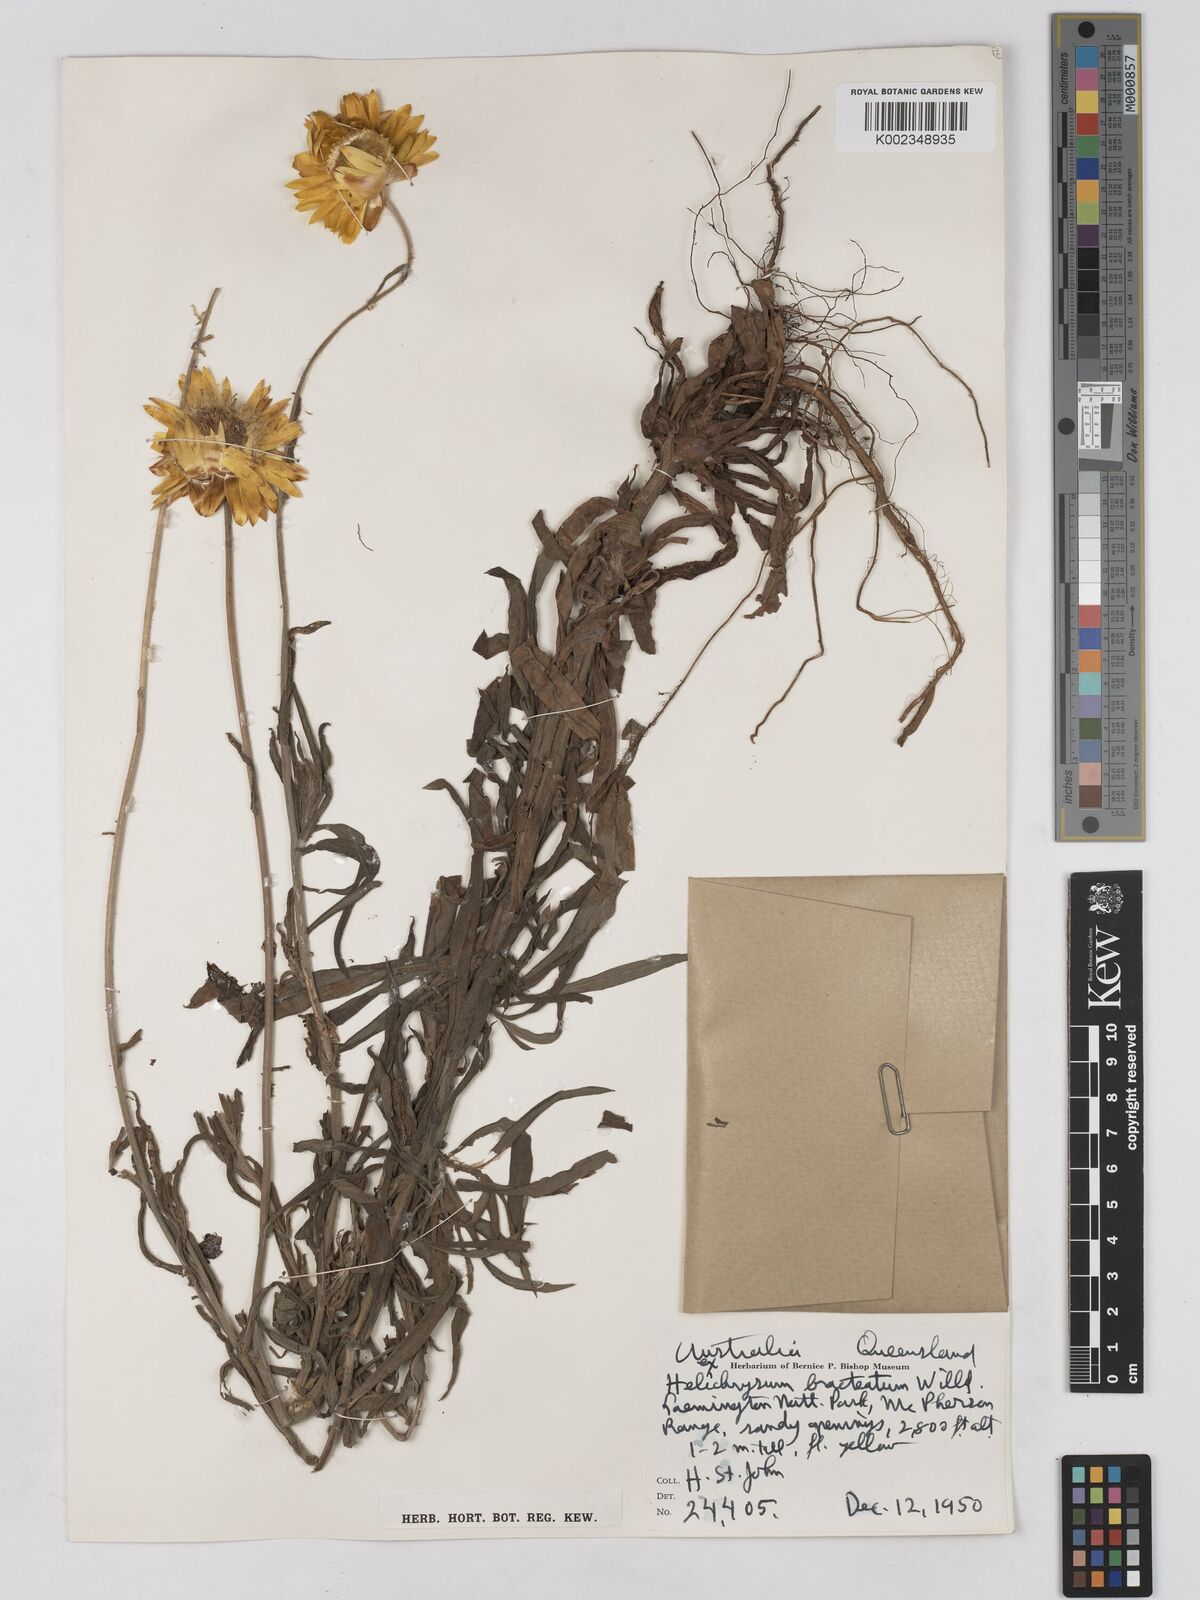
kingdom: Plantae
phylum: Tracheophyta
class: Magnoliopsida
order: Asterales
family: Asteraceae
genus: Xerochrysum
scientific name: Xerochrysum bracteatum
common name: Bracted strawflower
